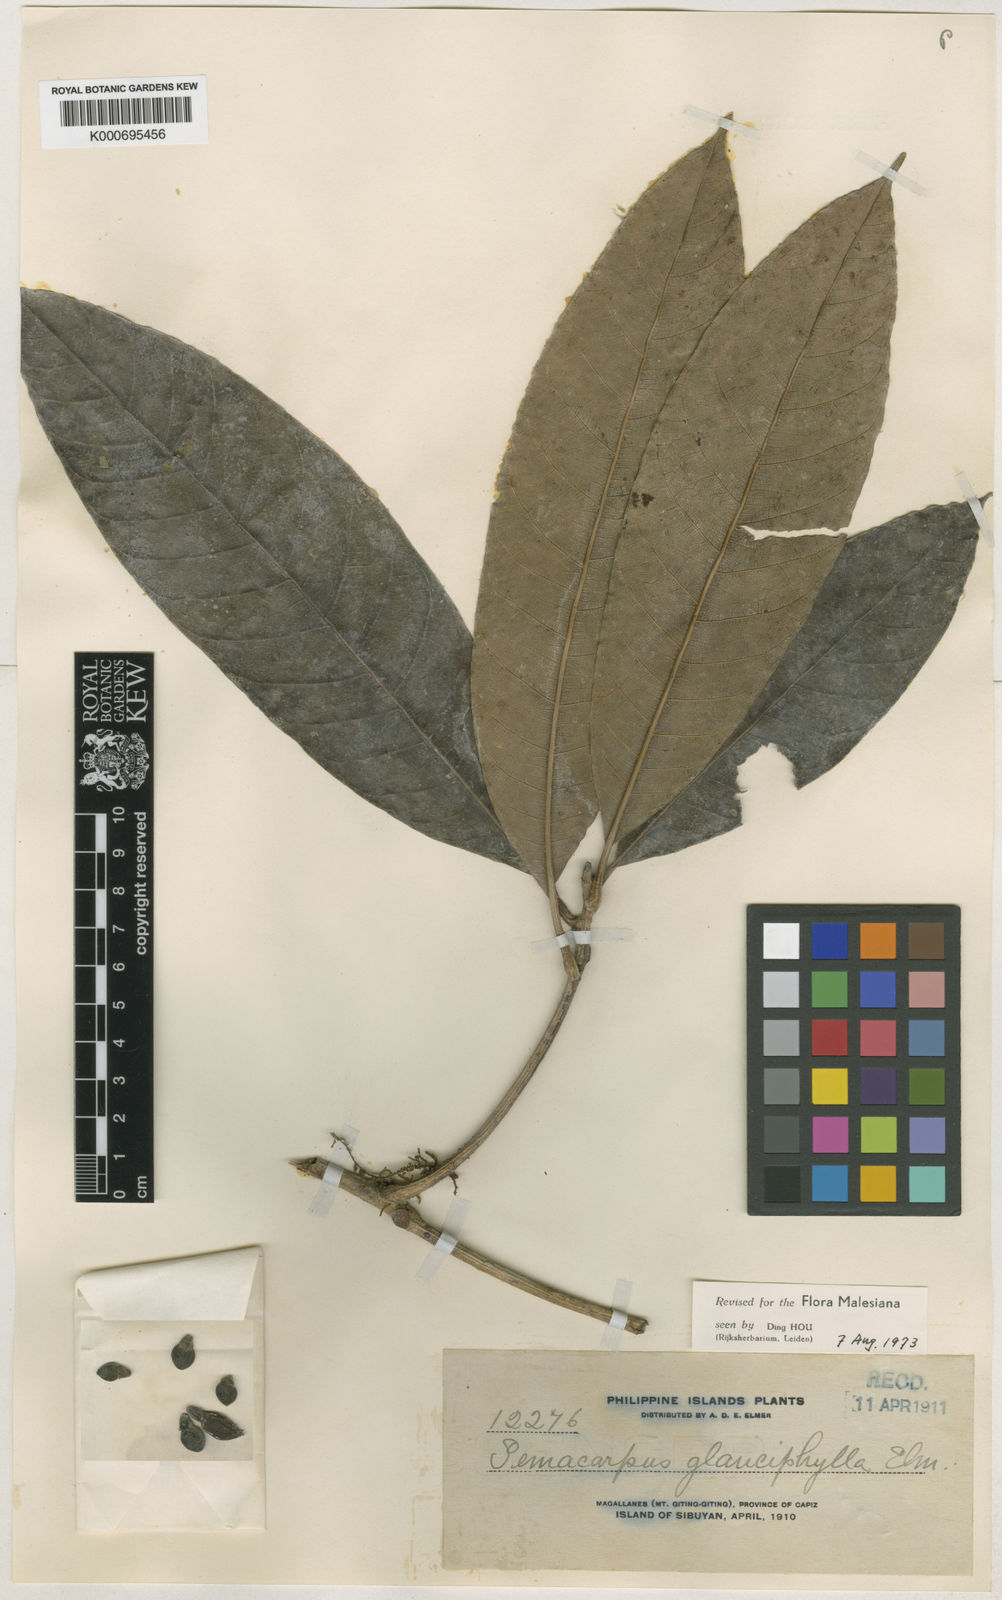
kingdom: Plantae
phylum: Tracheophyta
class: Magnoliopsida
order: Sapindales
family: Anacardiaceae
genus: Semecarpus
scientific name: Semecarpus glauciphyllus
